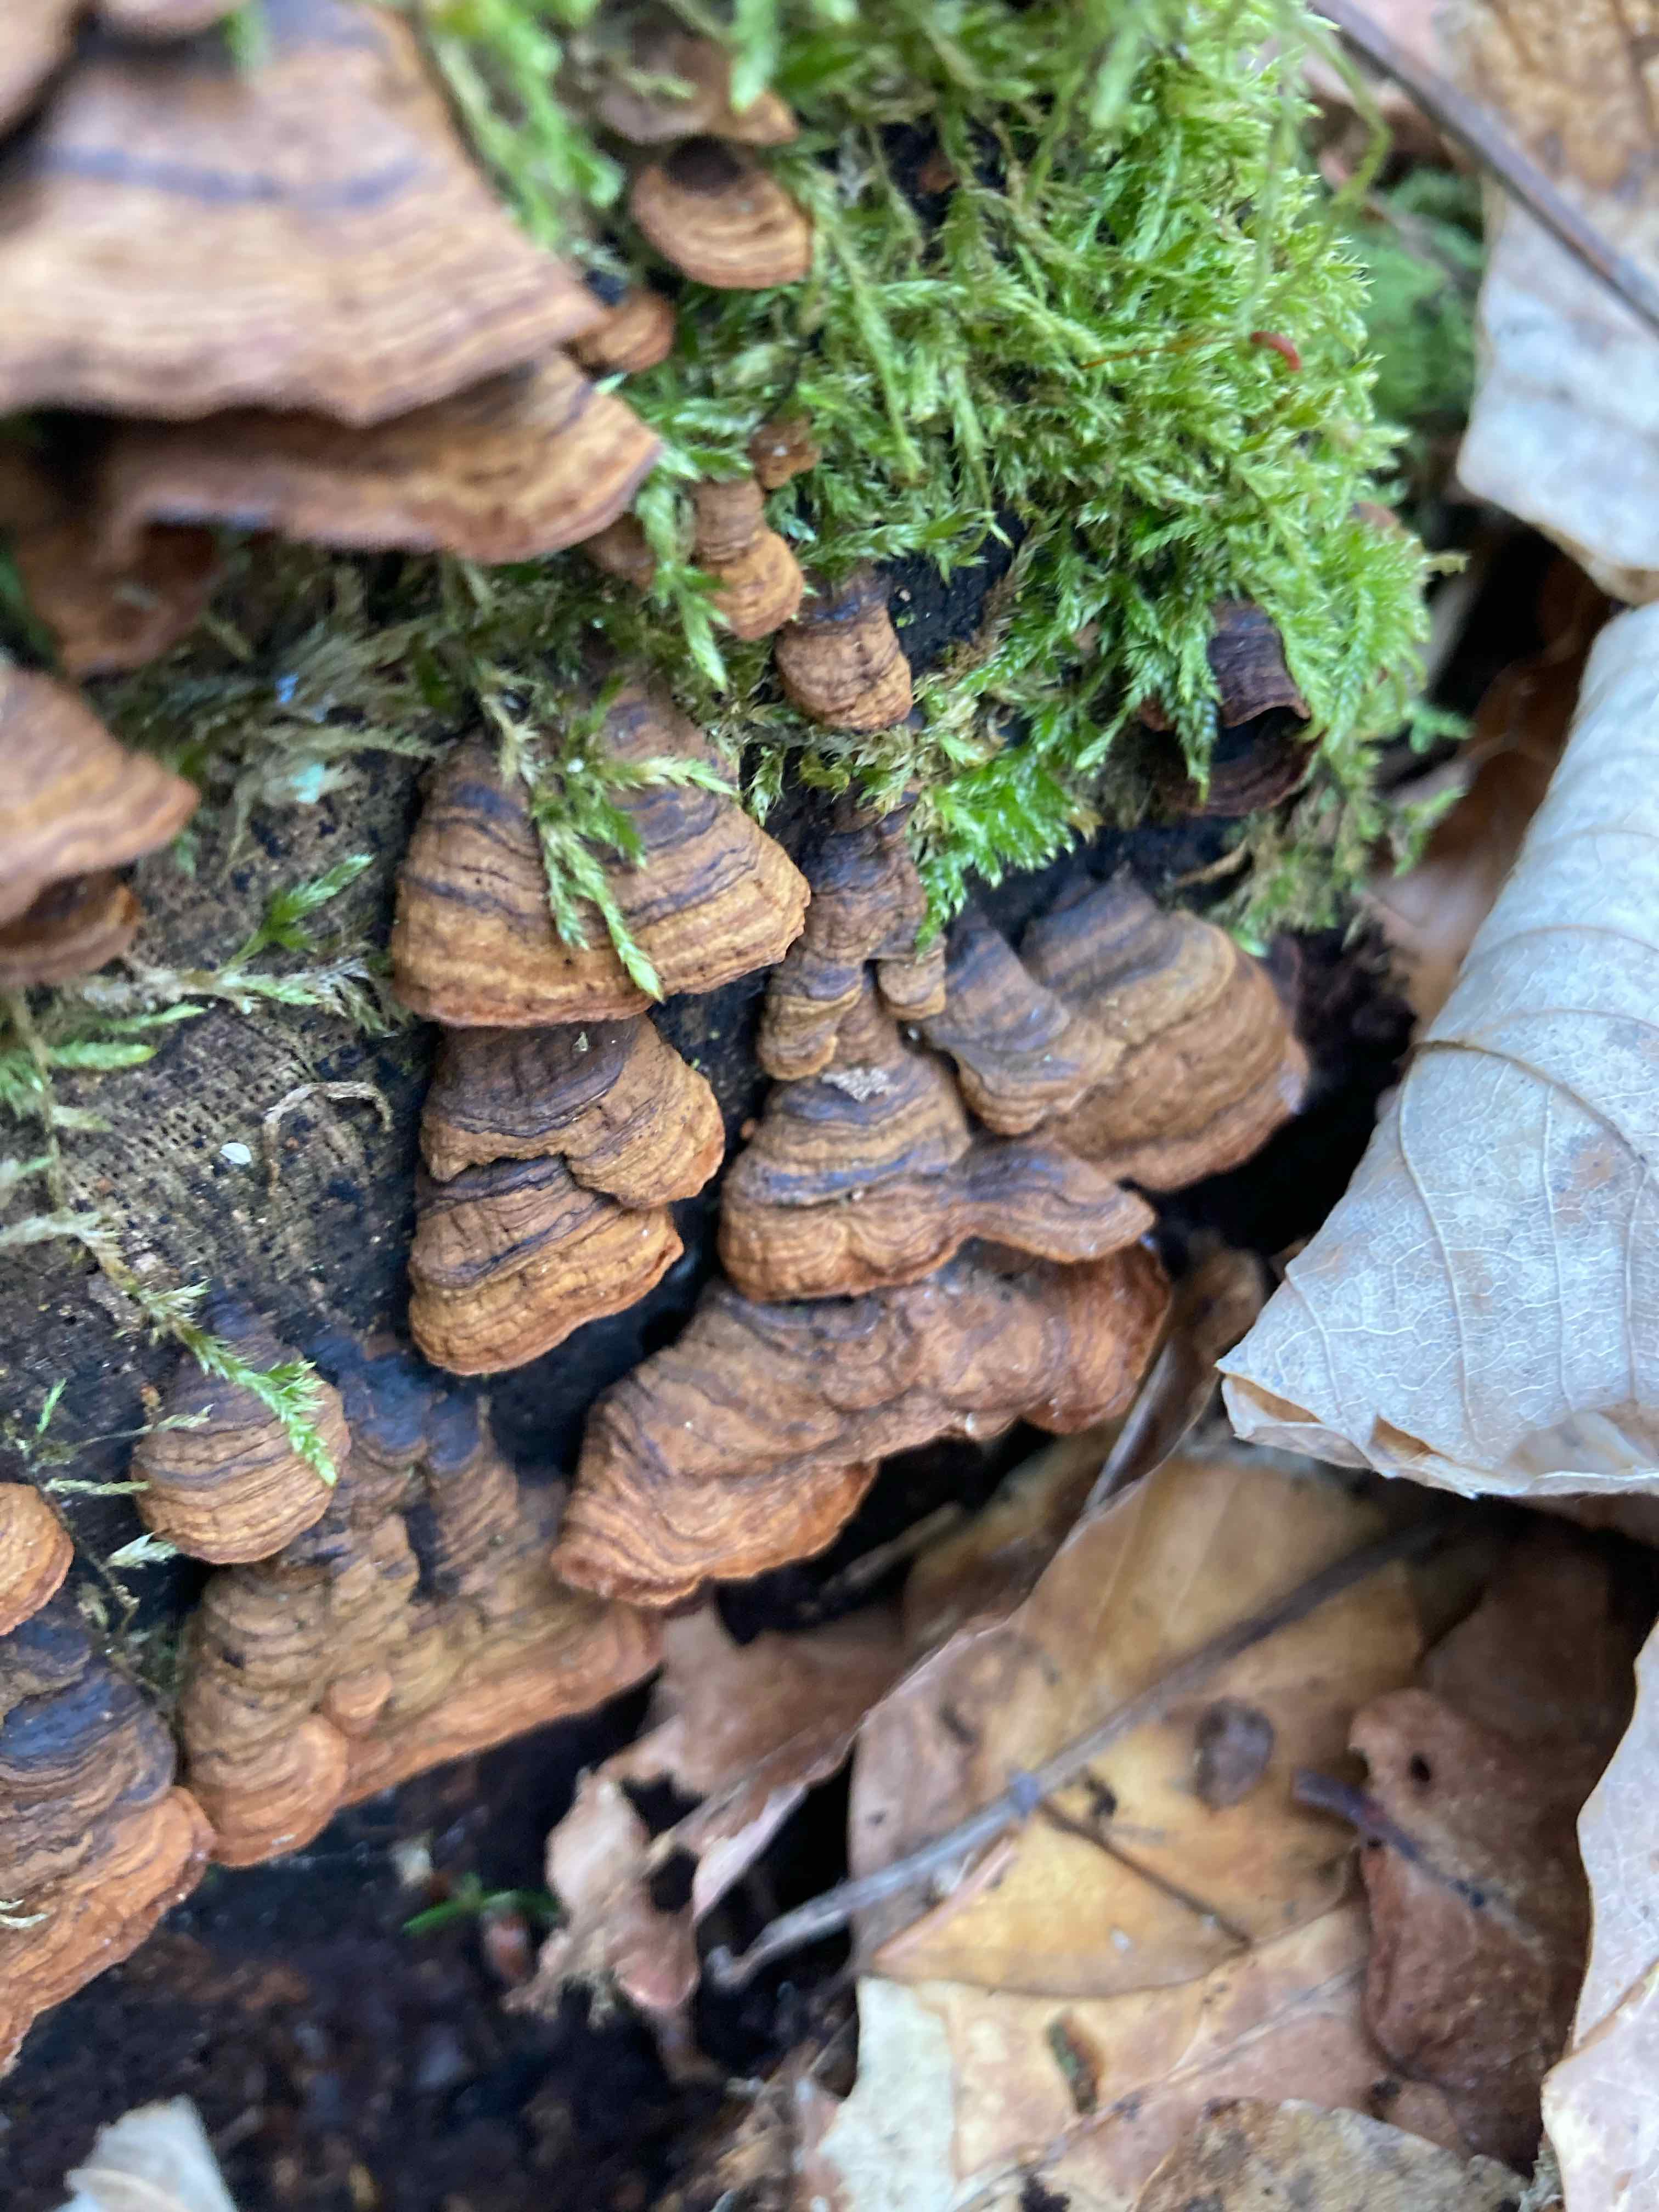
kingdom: Fungi
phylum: Basidiomycota
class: Agaricomycetes
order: Hymenochaetales
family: Hymenochaetaceae
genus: Hymenochaete
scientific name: Hymenochaete rubiginosa
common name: stiv ruslædersvamp
